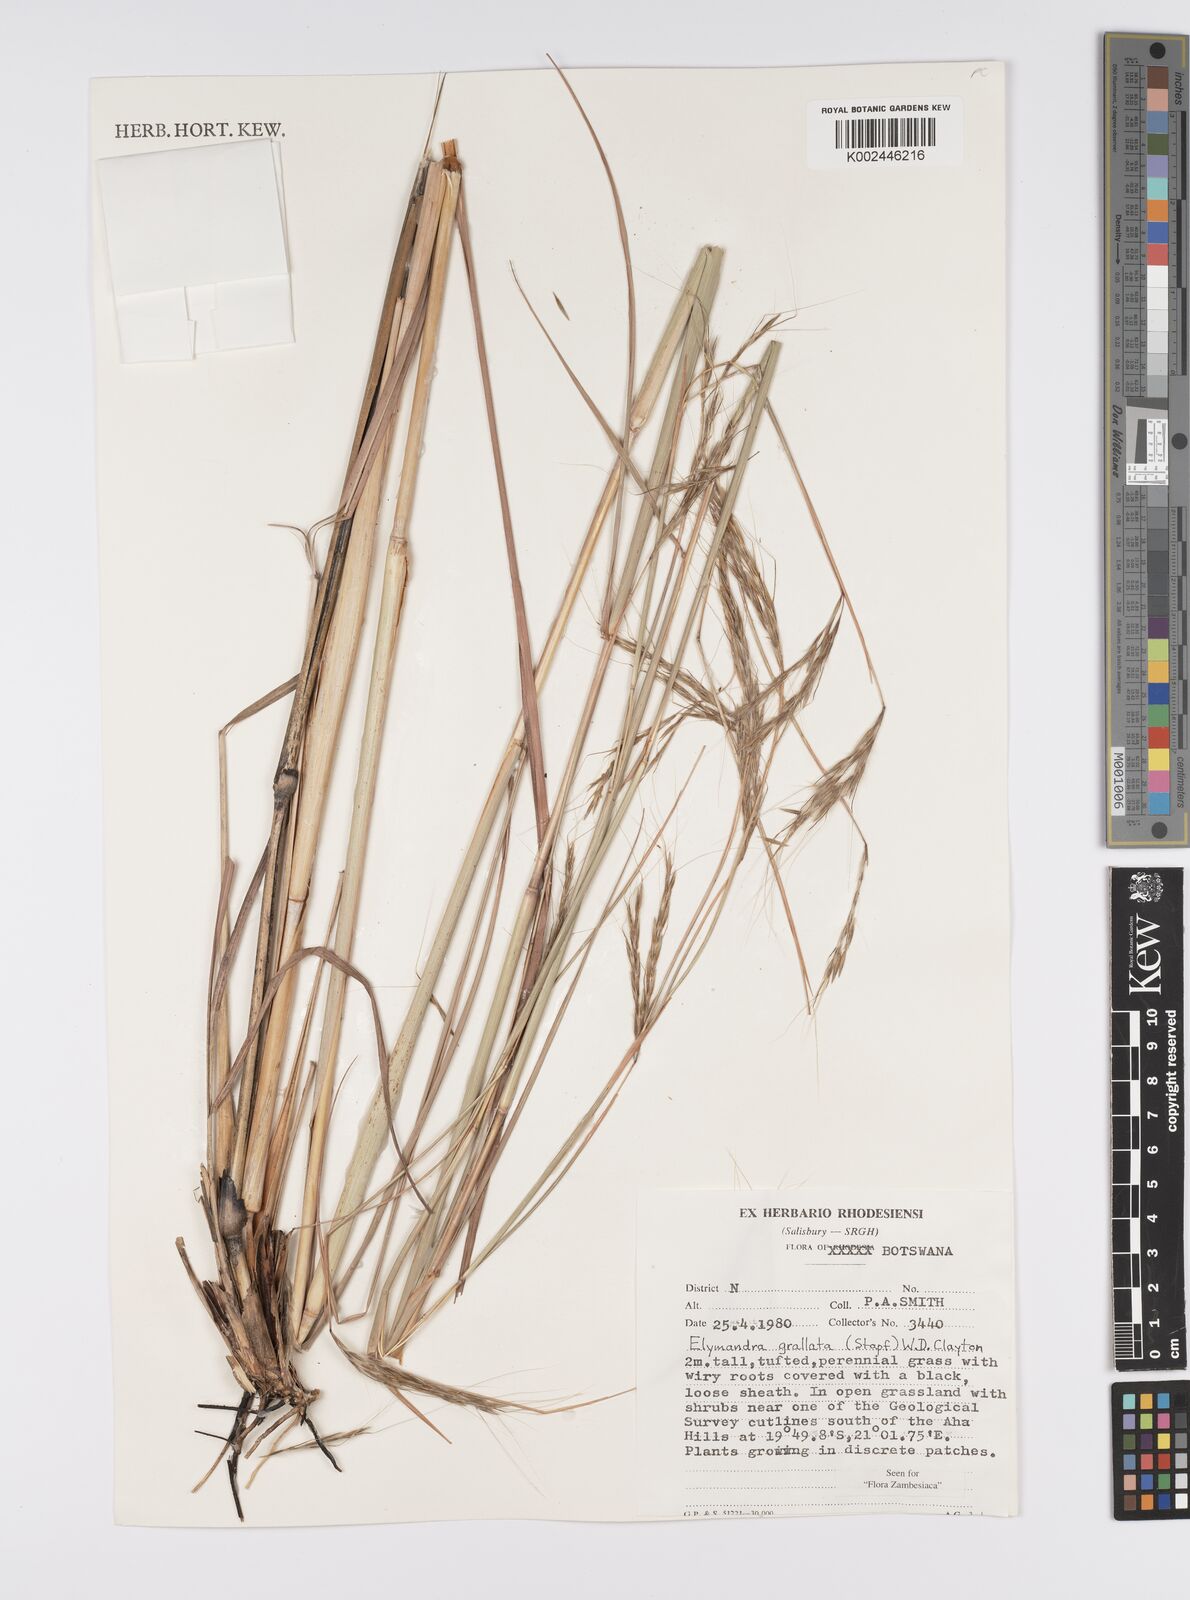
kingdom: Plantae
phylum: Tracheophyta
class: Liliopsida
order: Poales
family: Poaceae
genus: Elymandra
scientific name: Elymandra grallata
